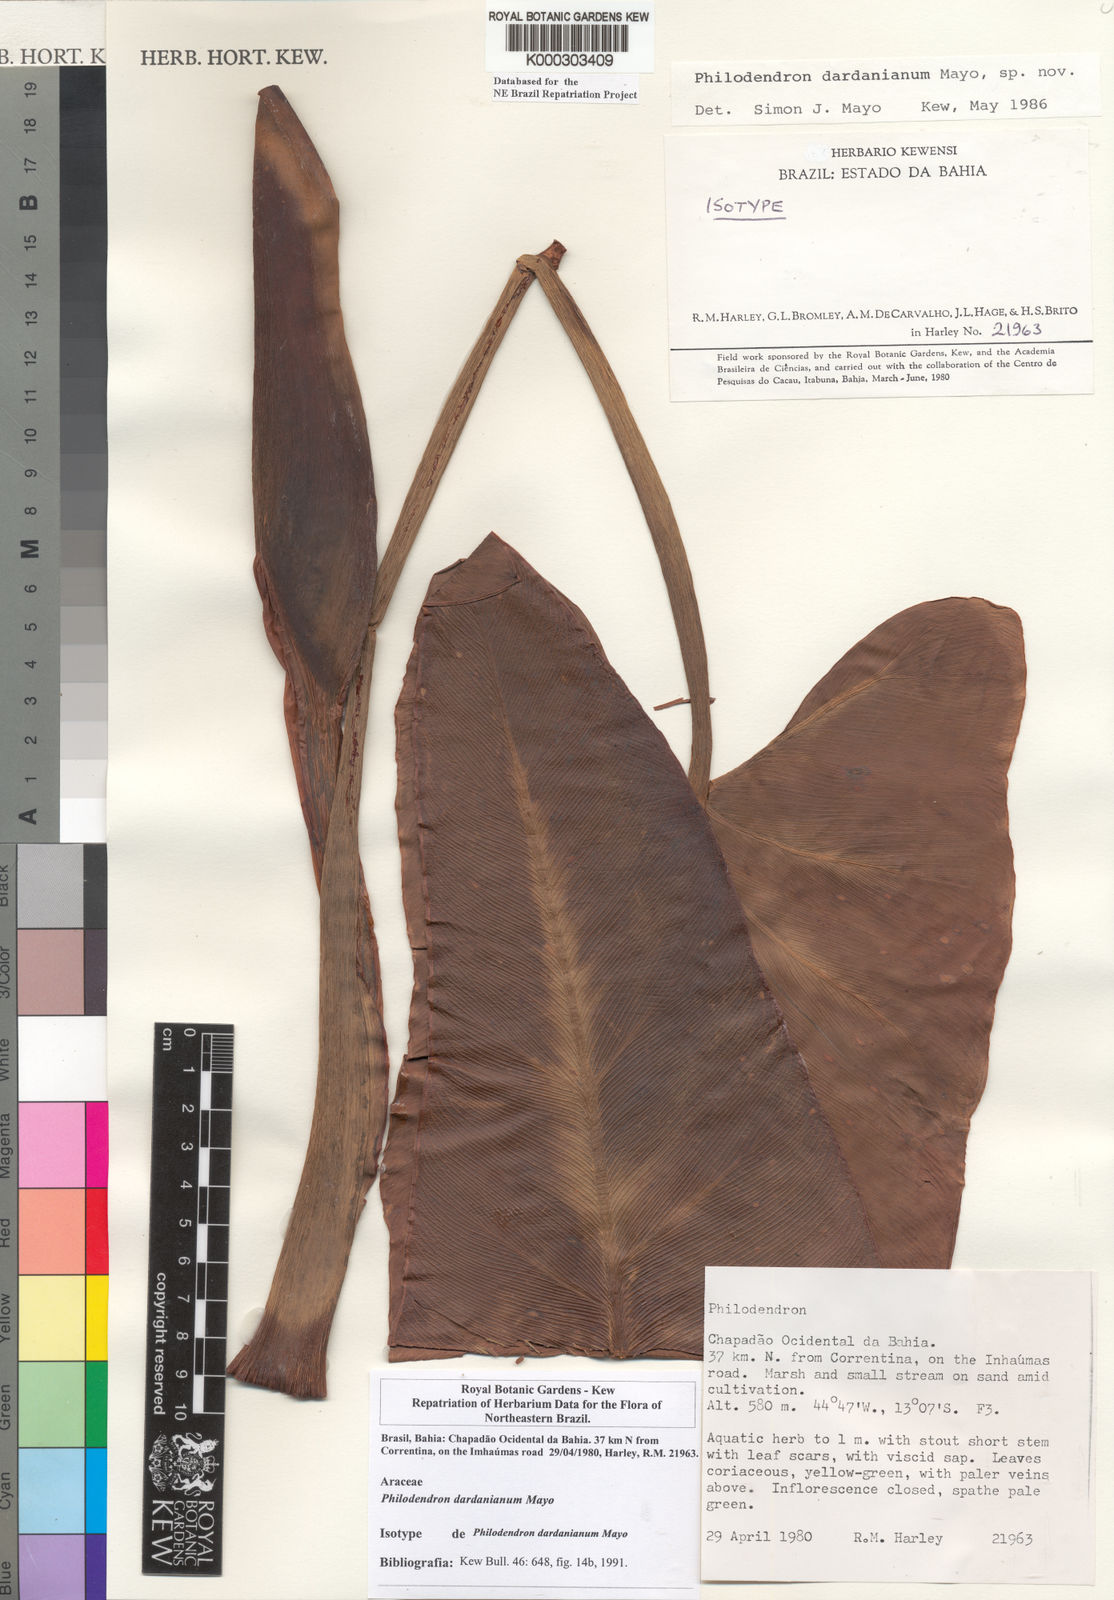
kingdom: Plantae
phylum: Tracheophyta
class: Liliopsida
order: Alismatales
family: Araceae
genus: Thaumatophyllum
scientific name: Thaumatophyllum dardanianum
